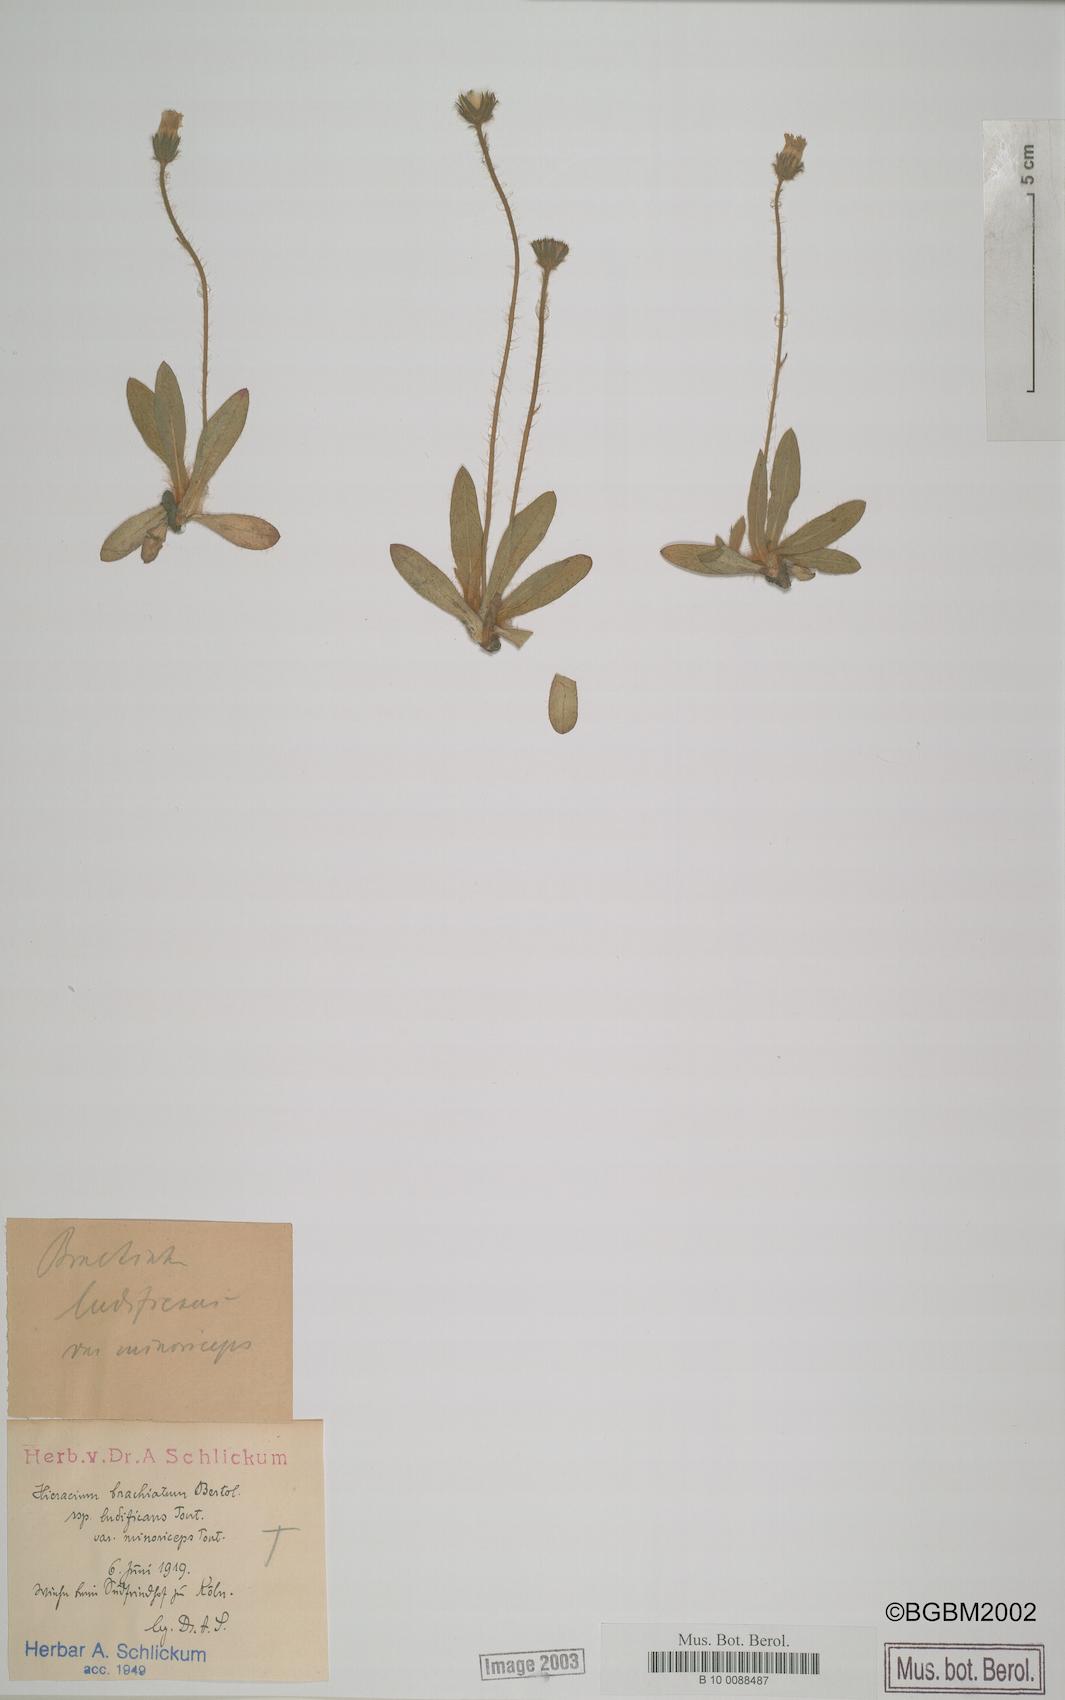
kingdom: Plantae
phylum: Tracheophyta
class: Magnoliopsida
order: Asterales
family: Asteraceae
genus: Pilosella
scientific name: Pilosella acutifolia
